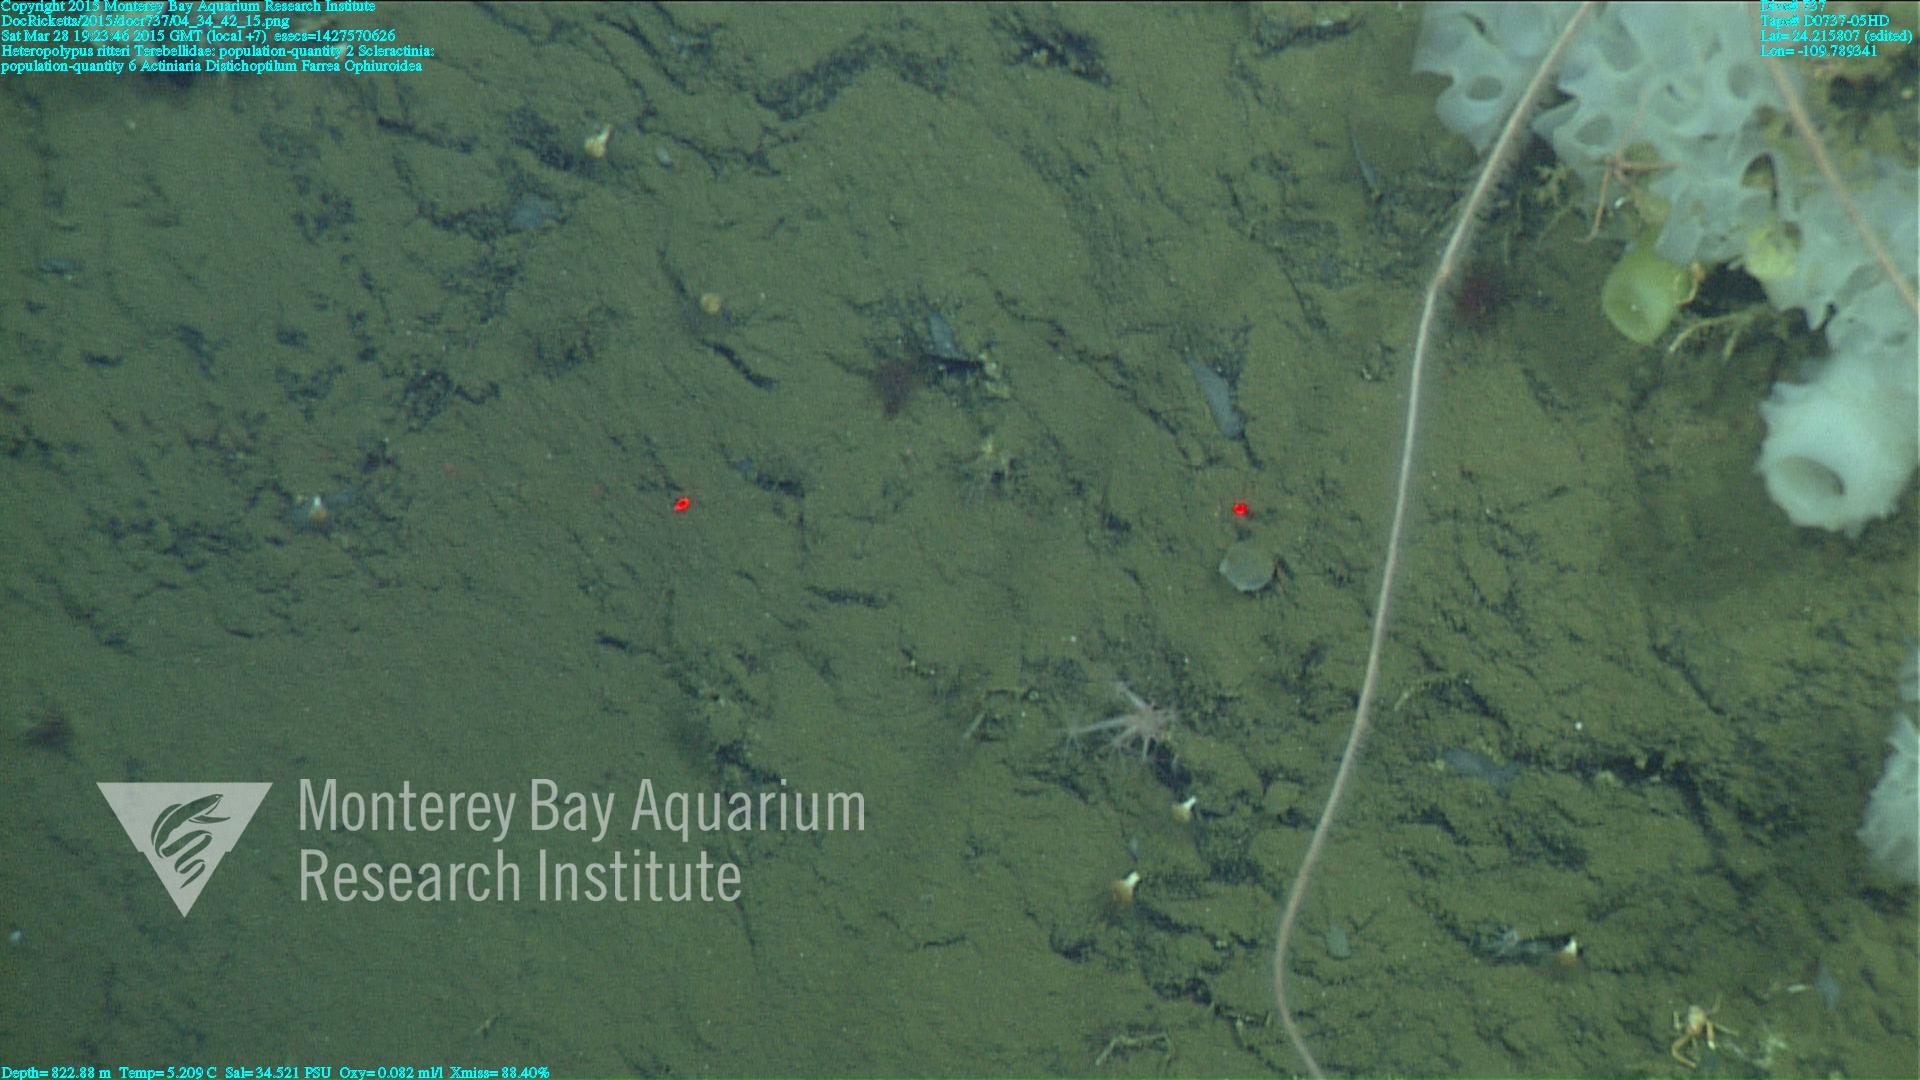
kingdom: Animalia
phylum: Cnidaria
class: Anthozoa
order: Scleractinia
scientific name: Scleractinia
